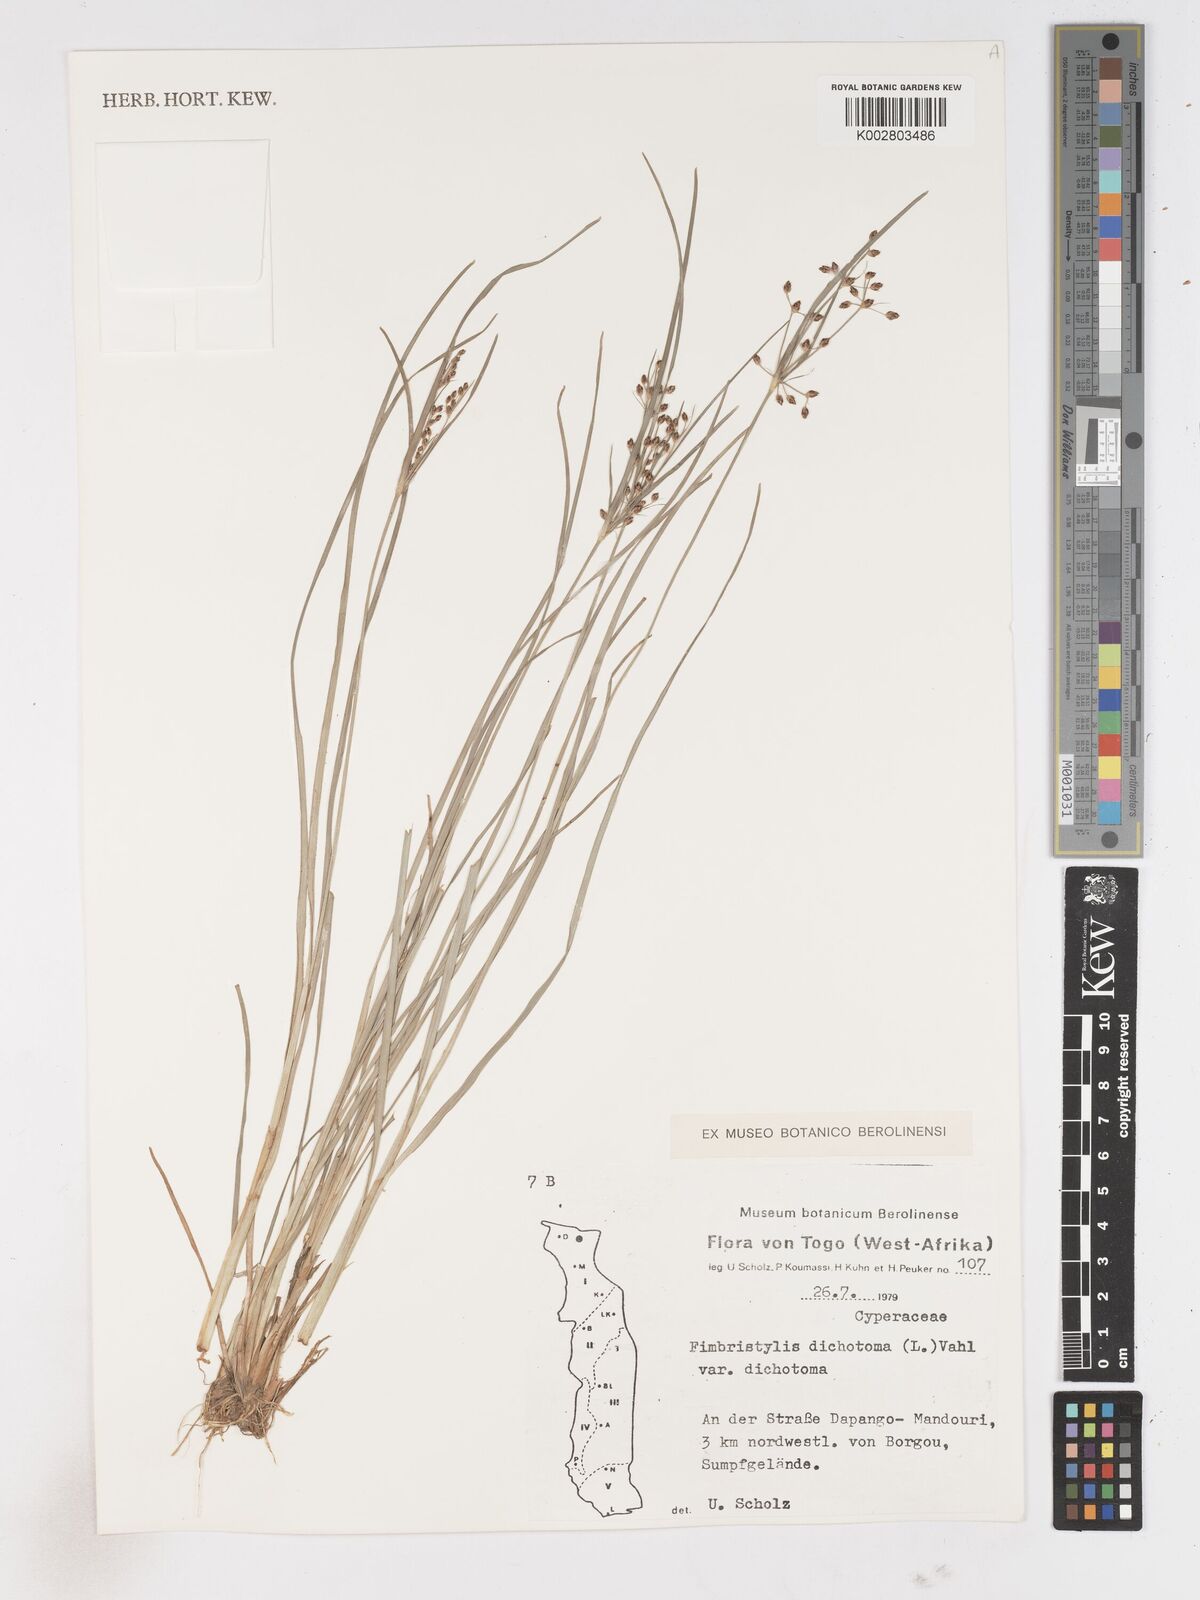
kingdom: Plantae
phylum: Tracheophyta
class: Liliopsida
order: Poales
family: Cyperaceae
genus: Fimbristylis
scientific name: Fimbristylis dichotoma
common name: Forked fimbry
